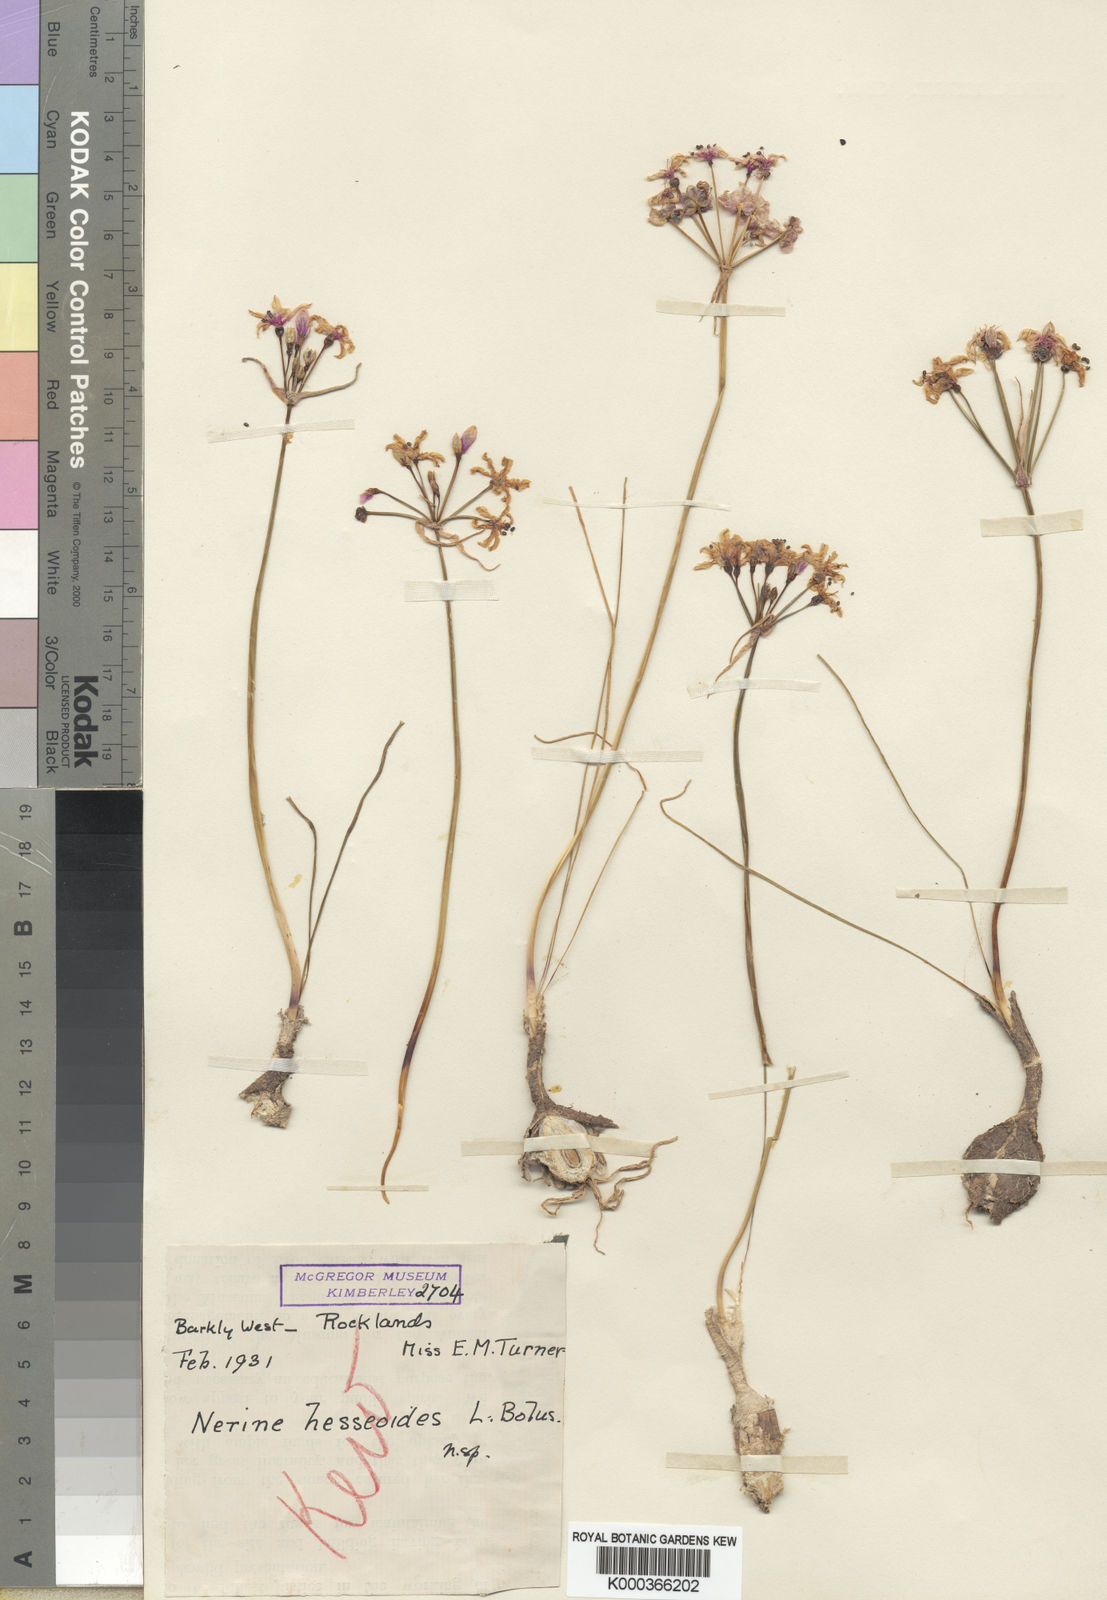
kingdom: Plantae
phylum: Tracheophyta
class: Liliopsida
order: Asparagales
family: Amaryllidaceae
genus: Nerine
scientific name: Nerine hesseoides
